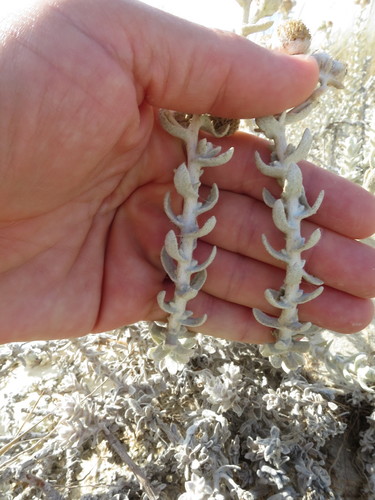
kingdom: Plantae
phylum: Tracheophyta
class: Magnoliopsida
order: Asterales
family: Asteraceae
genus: Achillea
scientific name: Achillea maritima
